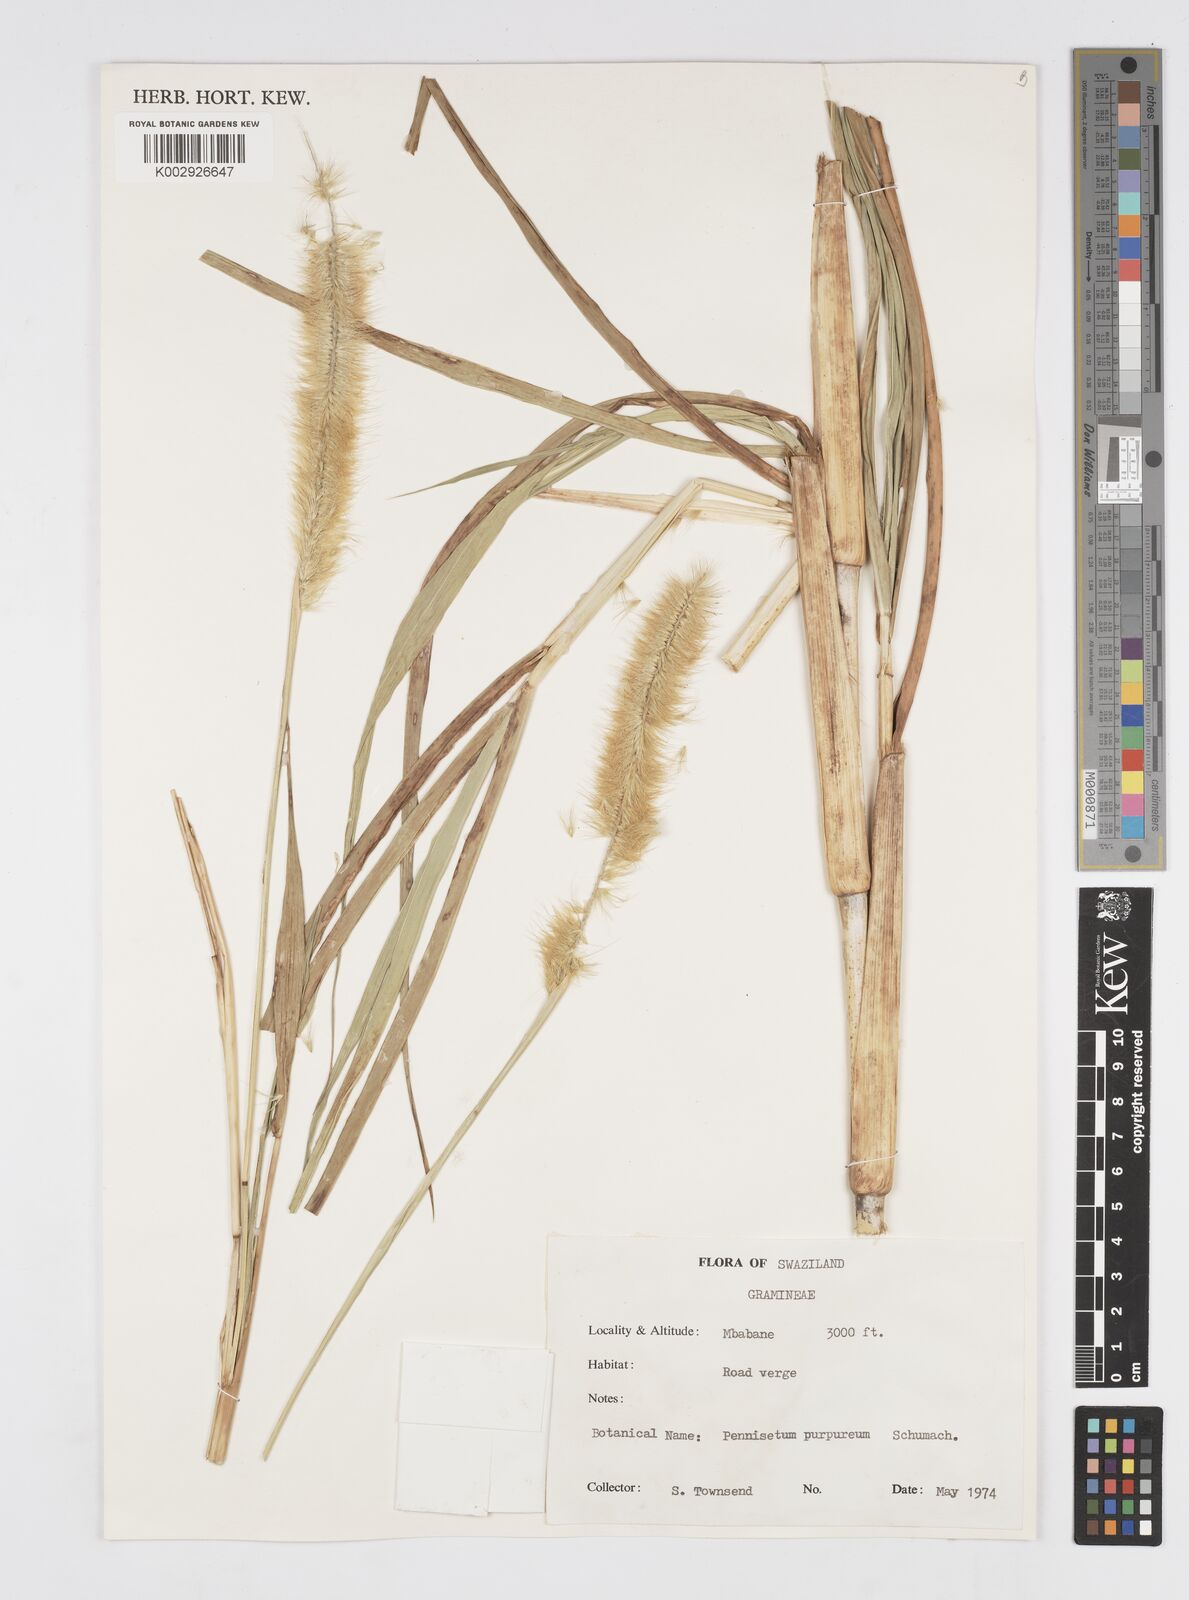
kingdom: Plantae
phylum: Tracheophyta
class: Liliopsida
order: Poales
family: Poaceae
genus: Cenchrus
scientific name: Cenchrus purpureus
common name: Elephant grass
